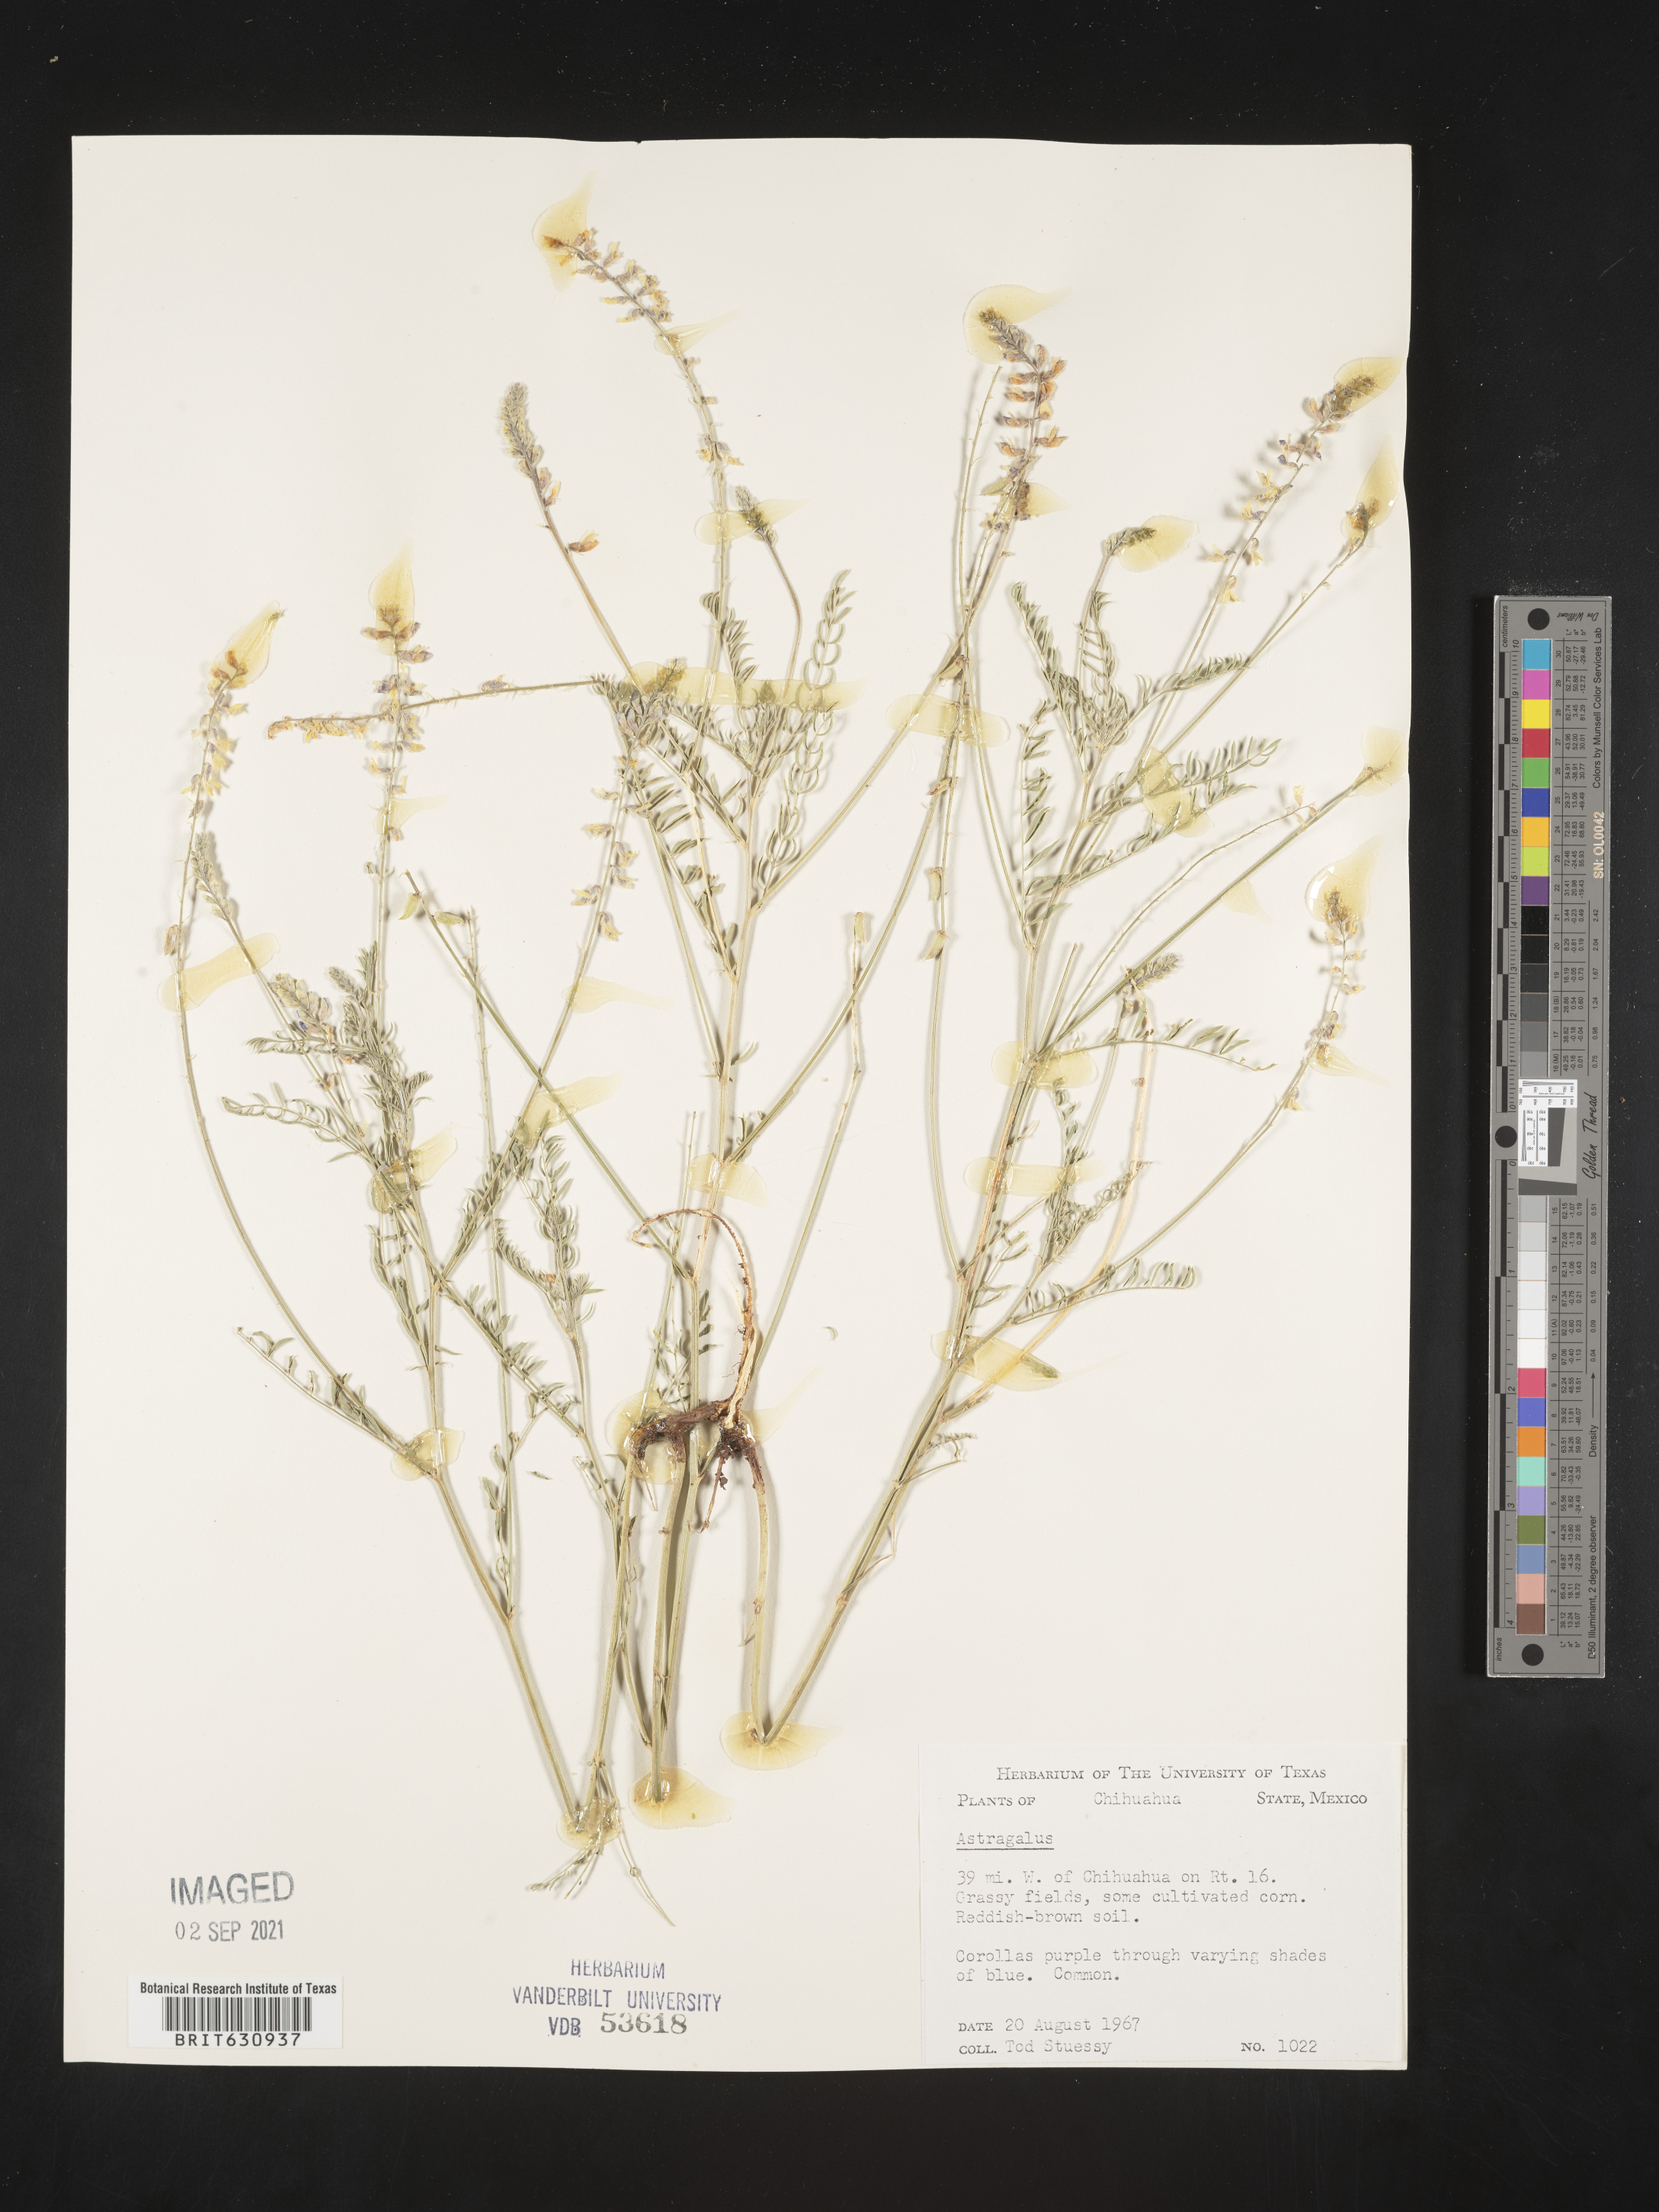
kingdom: Plantae
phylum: Tracheophyta
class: Magnoliopsida
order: Fabales
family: Fabaceae
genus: Astragalus
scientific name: Astragalus
